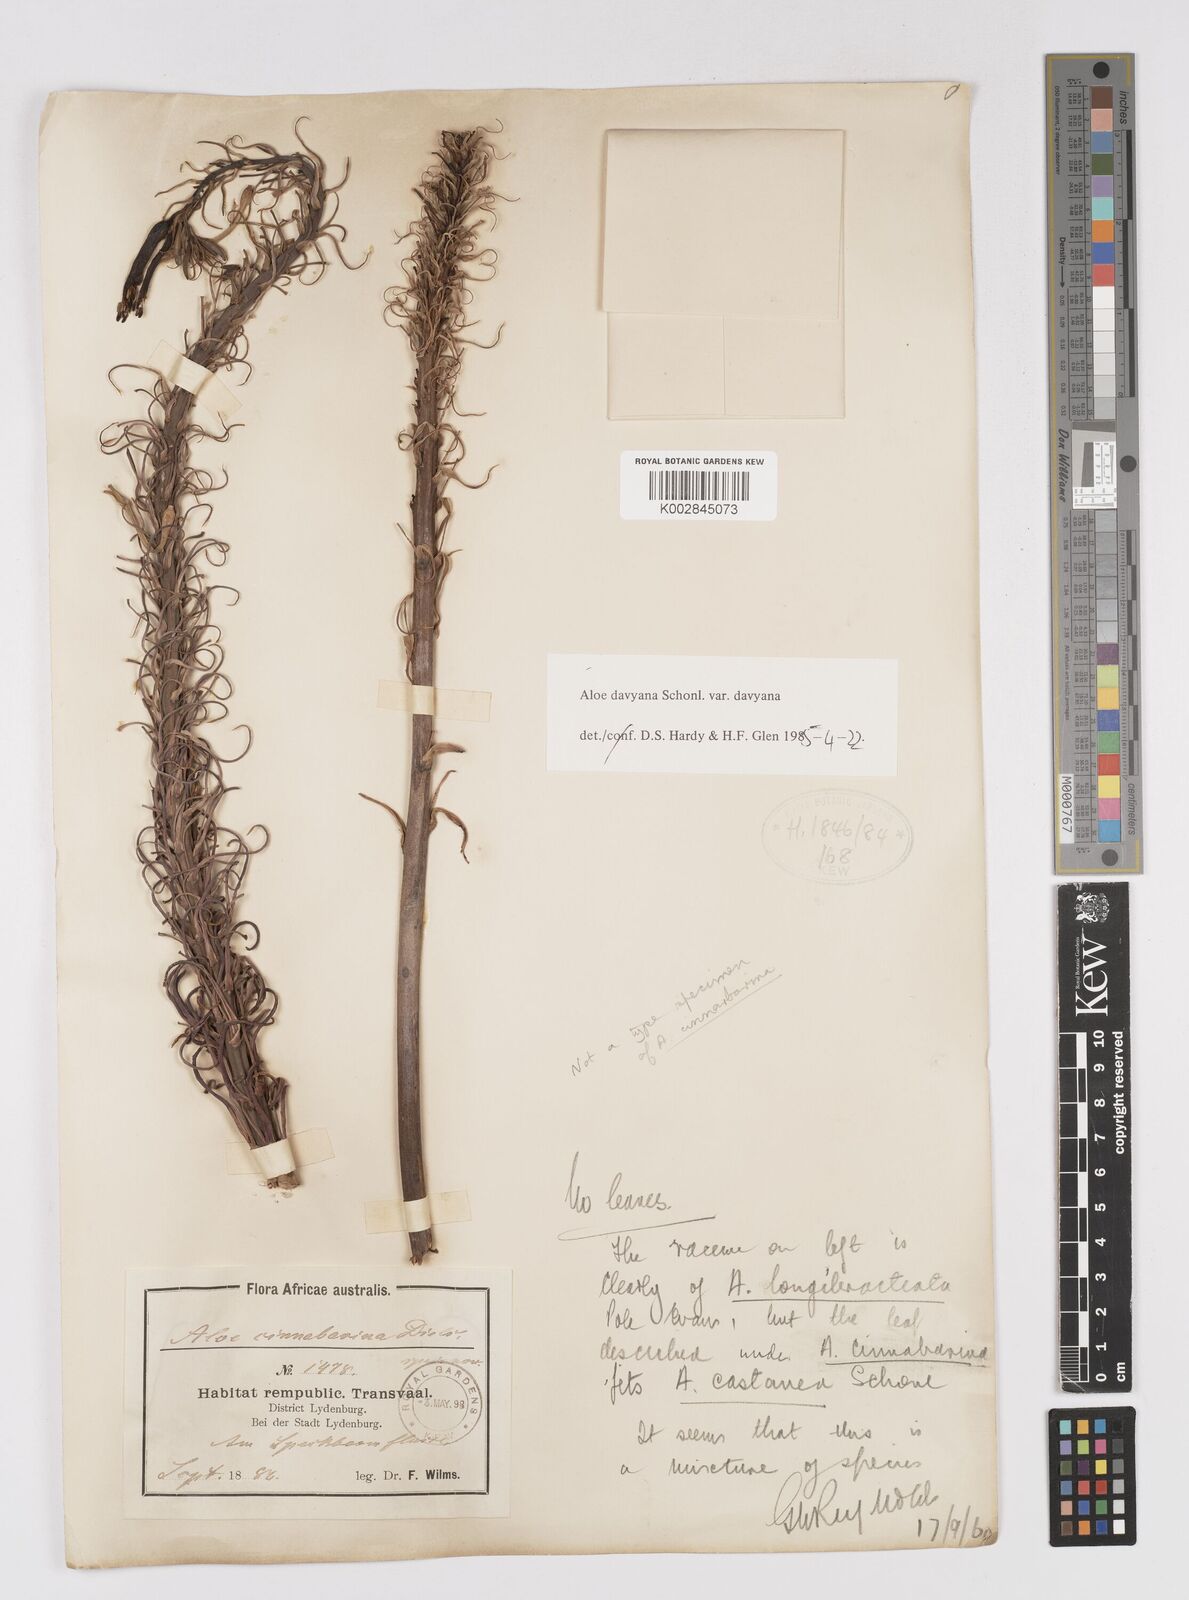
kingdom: Plantae
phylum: Tracheophyta
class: Liliopsida
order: Asparagales
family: Asphodelaceae
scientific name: Asphodelaceae
